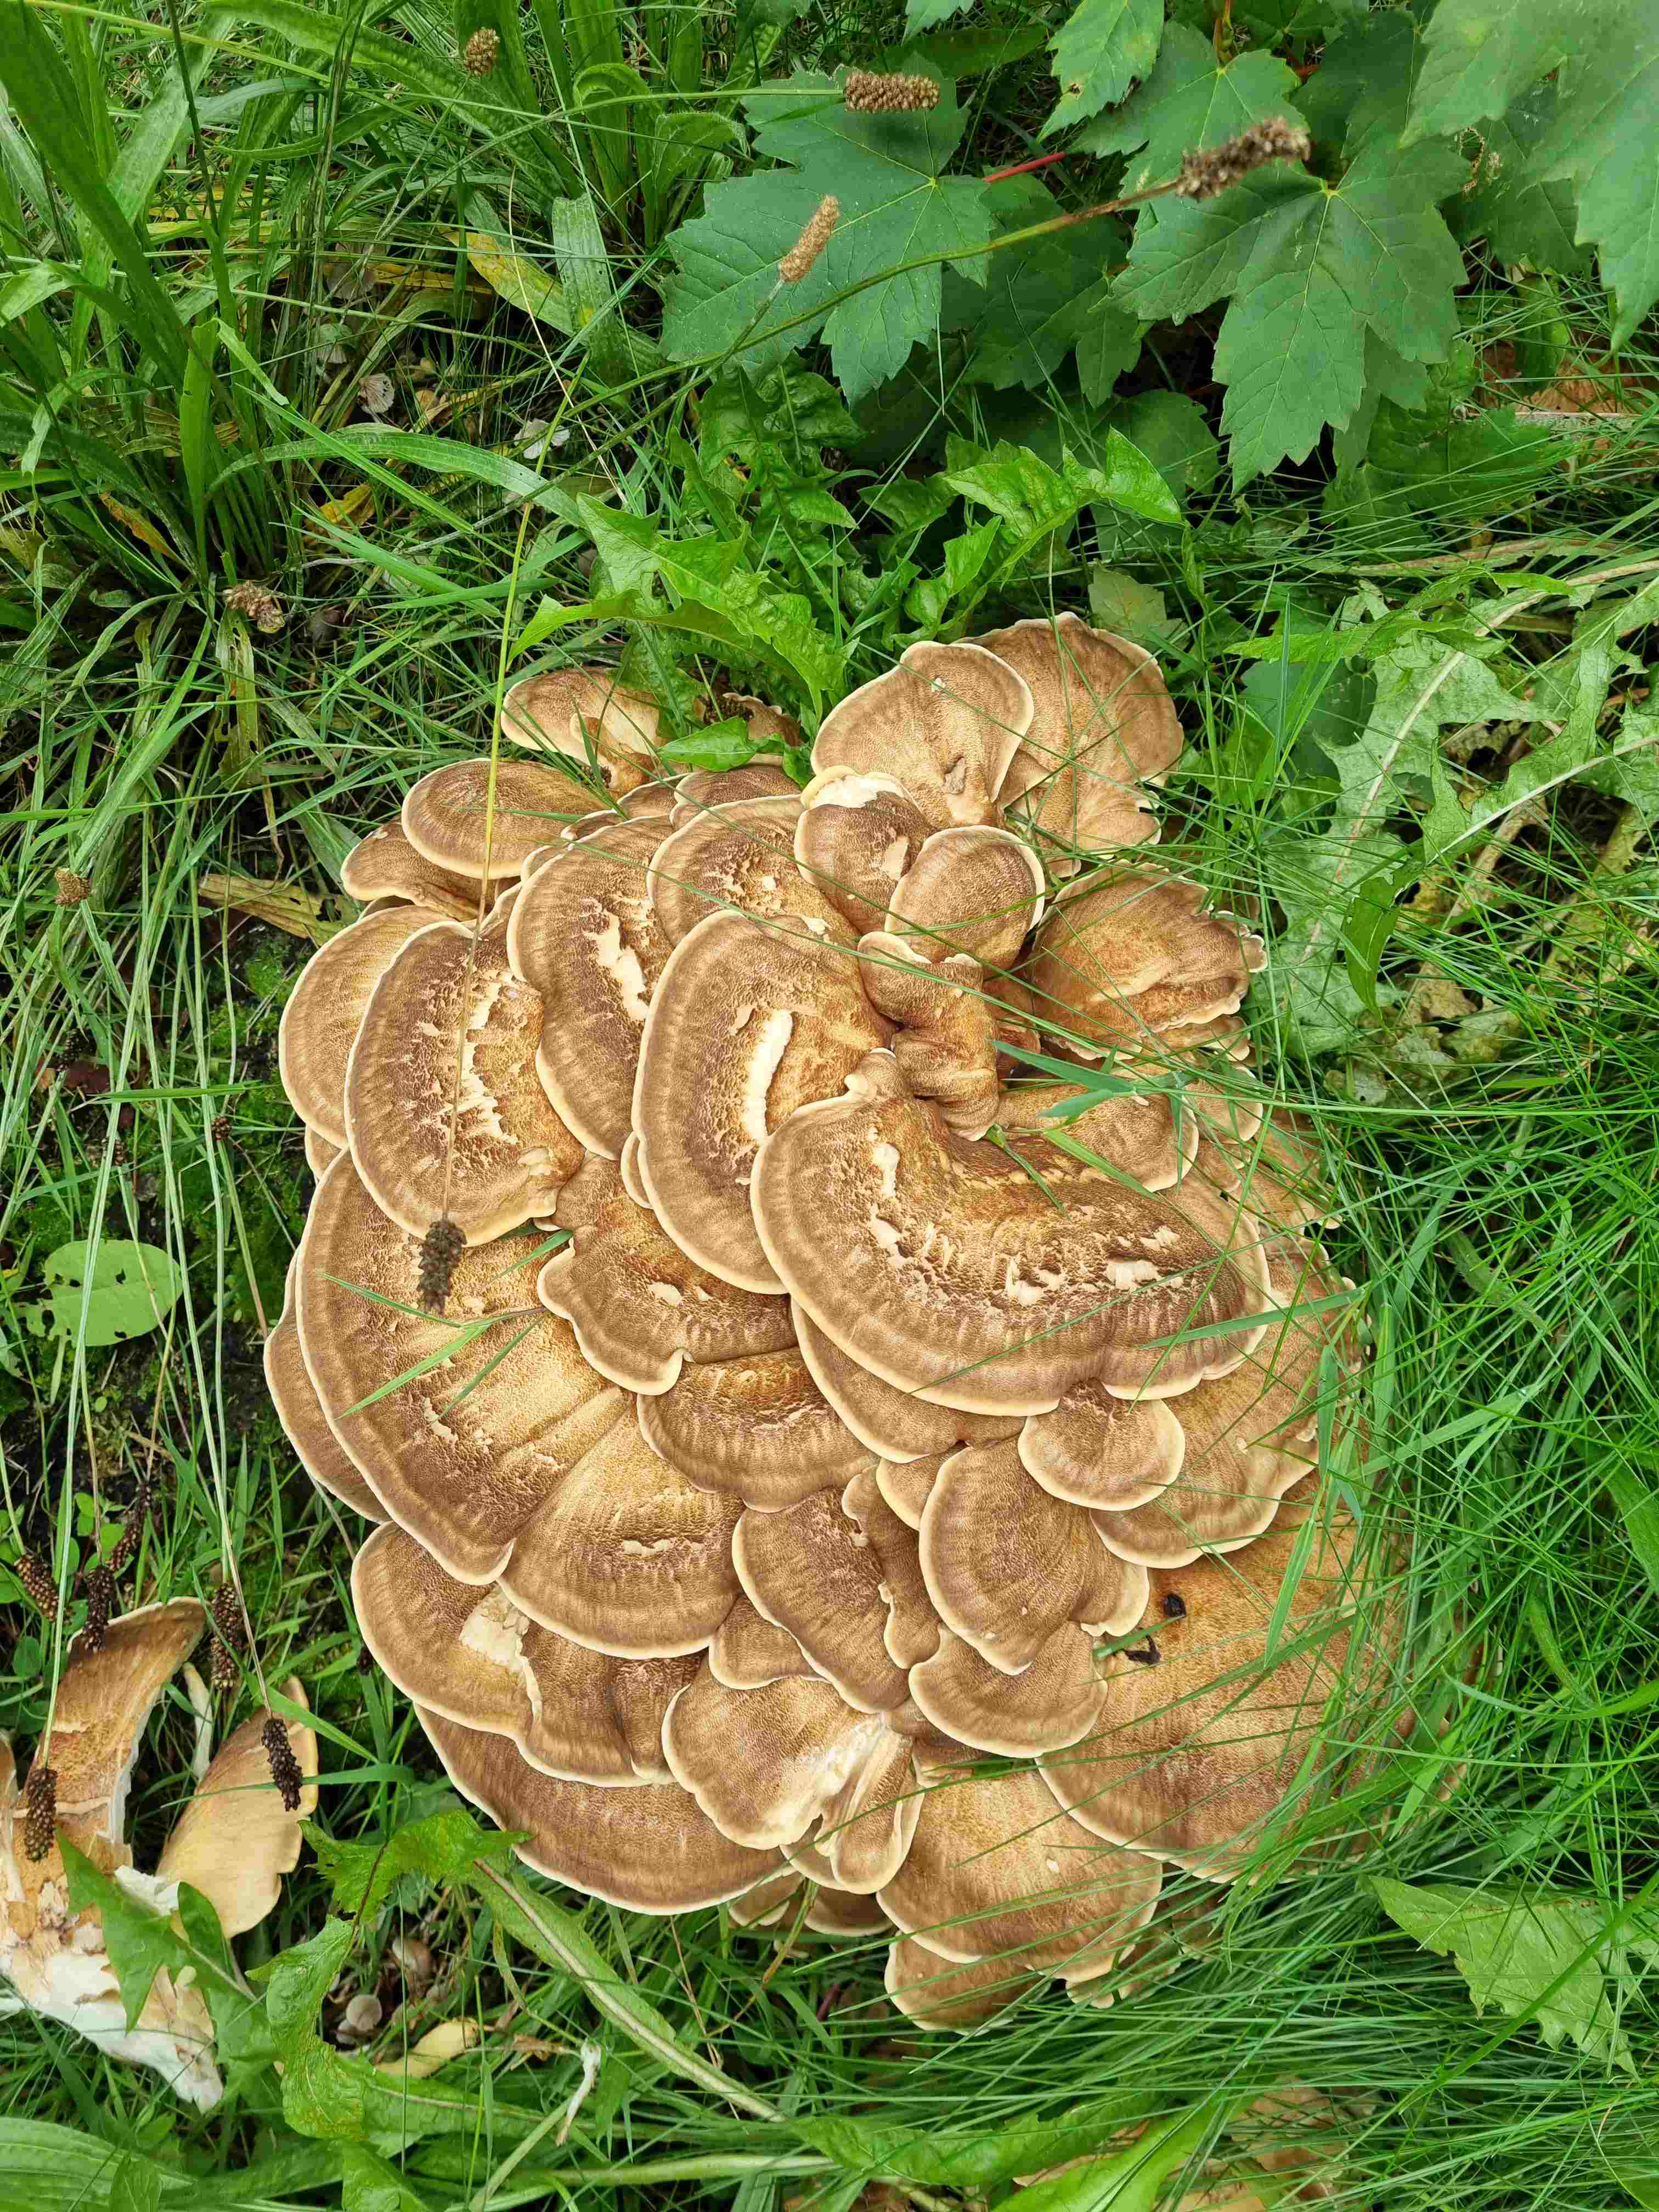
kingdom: Fungi
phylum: Basidiomycota
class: Agaricomycetes
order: Polyporales
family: Meripilaceae
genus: Meripilus
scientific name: Meripilus giganteus
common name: kæmpeporesvamp
